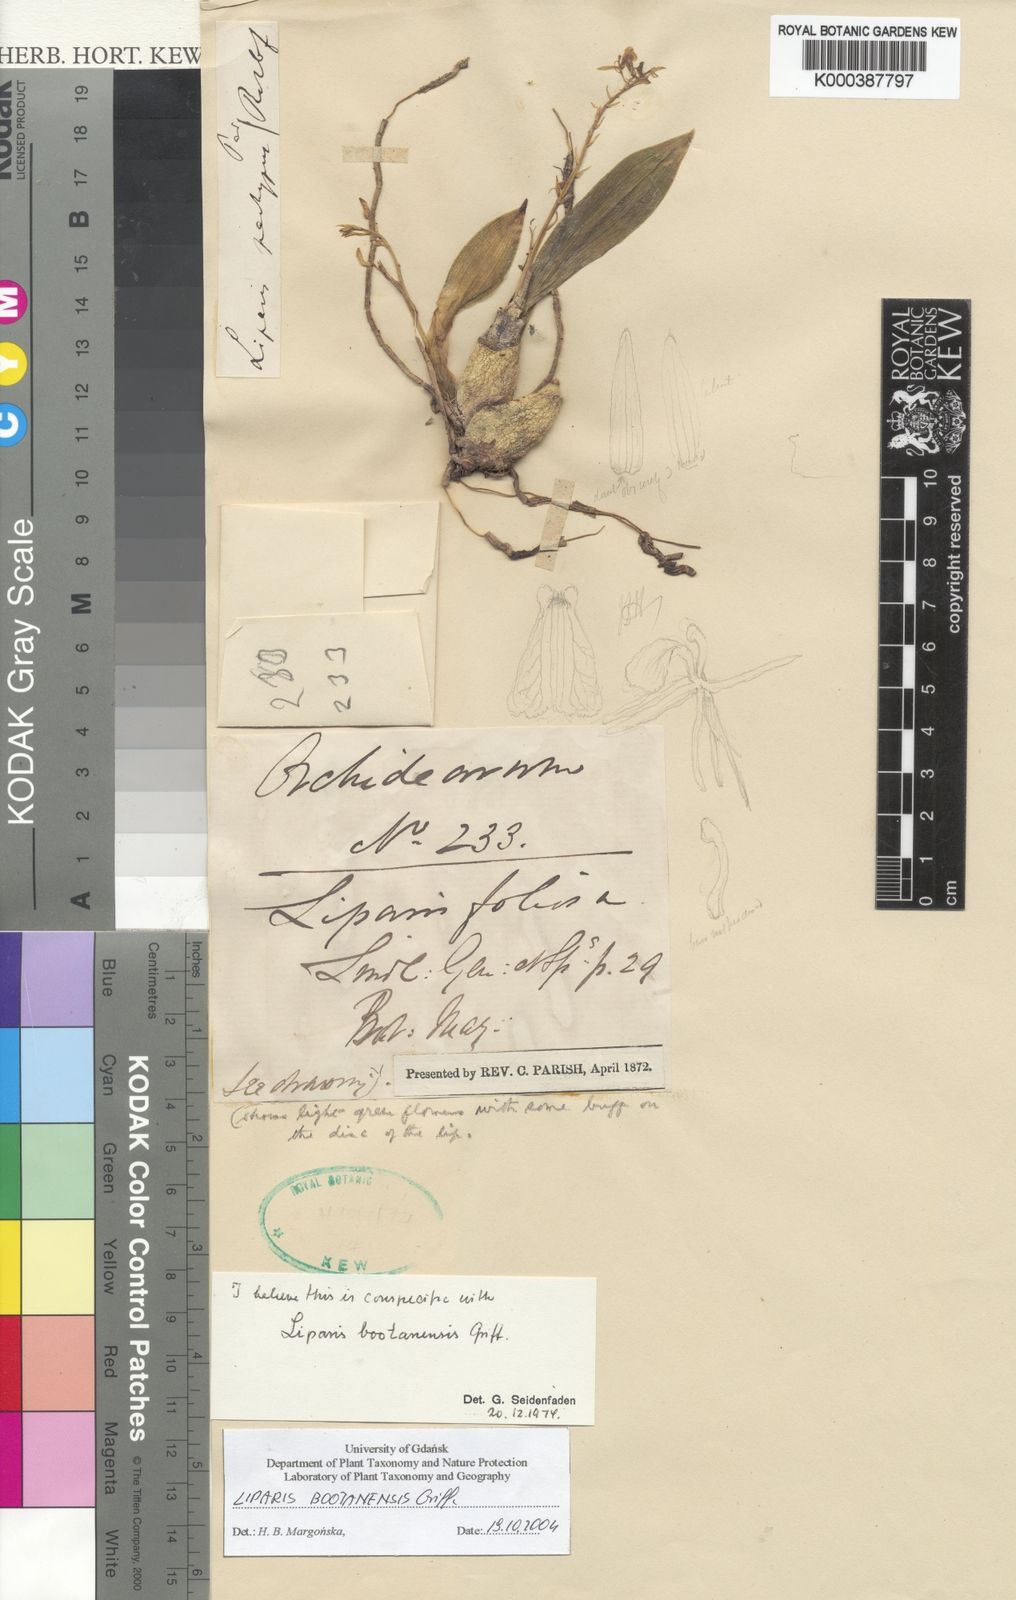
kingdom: Plantae
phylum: Tracheophyta
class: Liliopsida
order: Asparagales
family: Orchidaceae
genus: Liparis
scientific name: Liparis bootanensis
